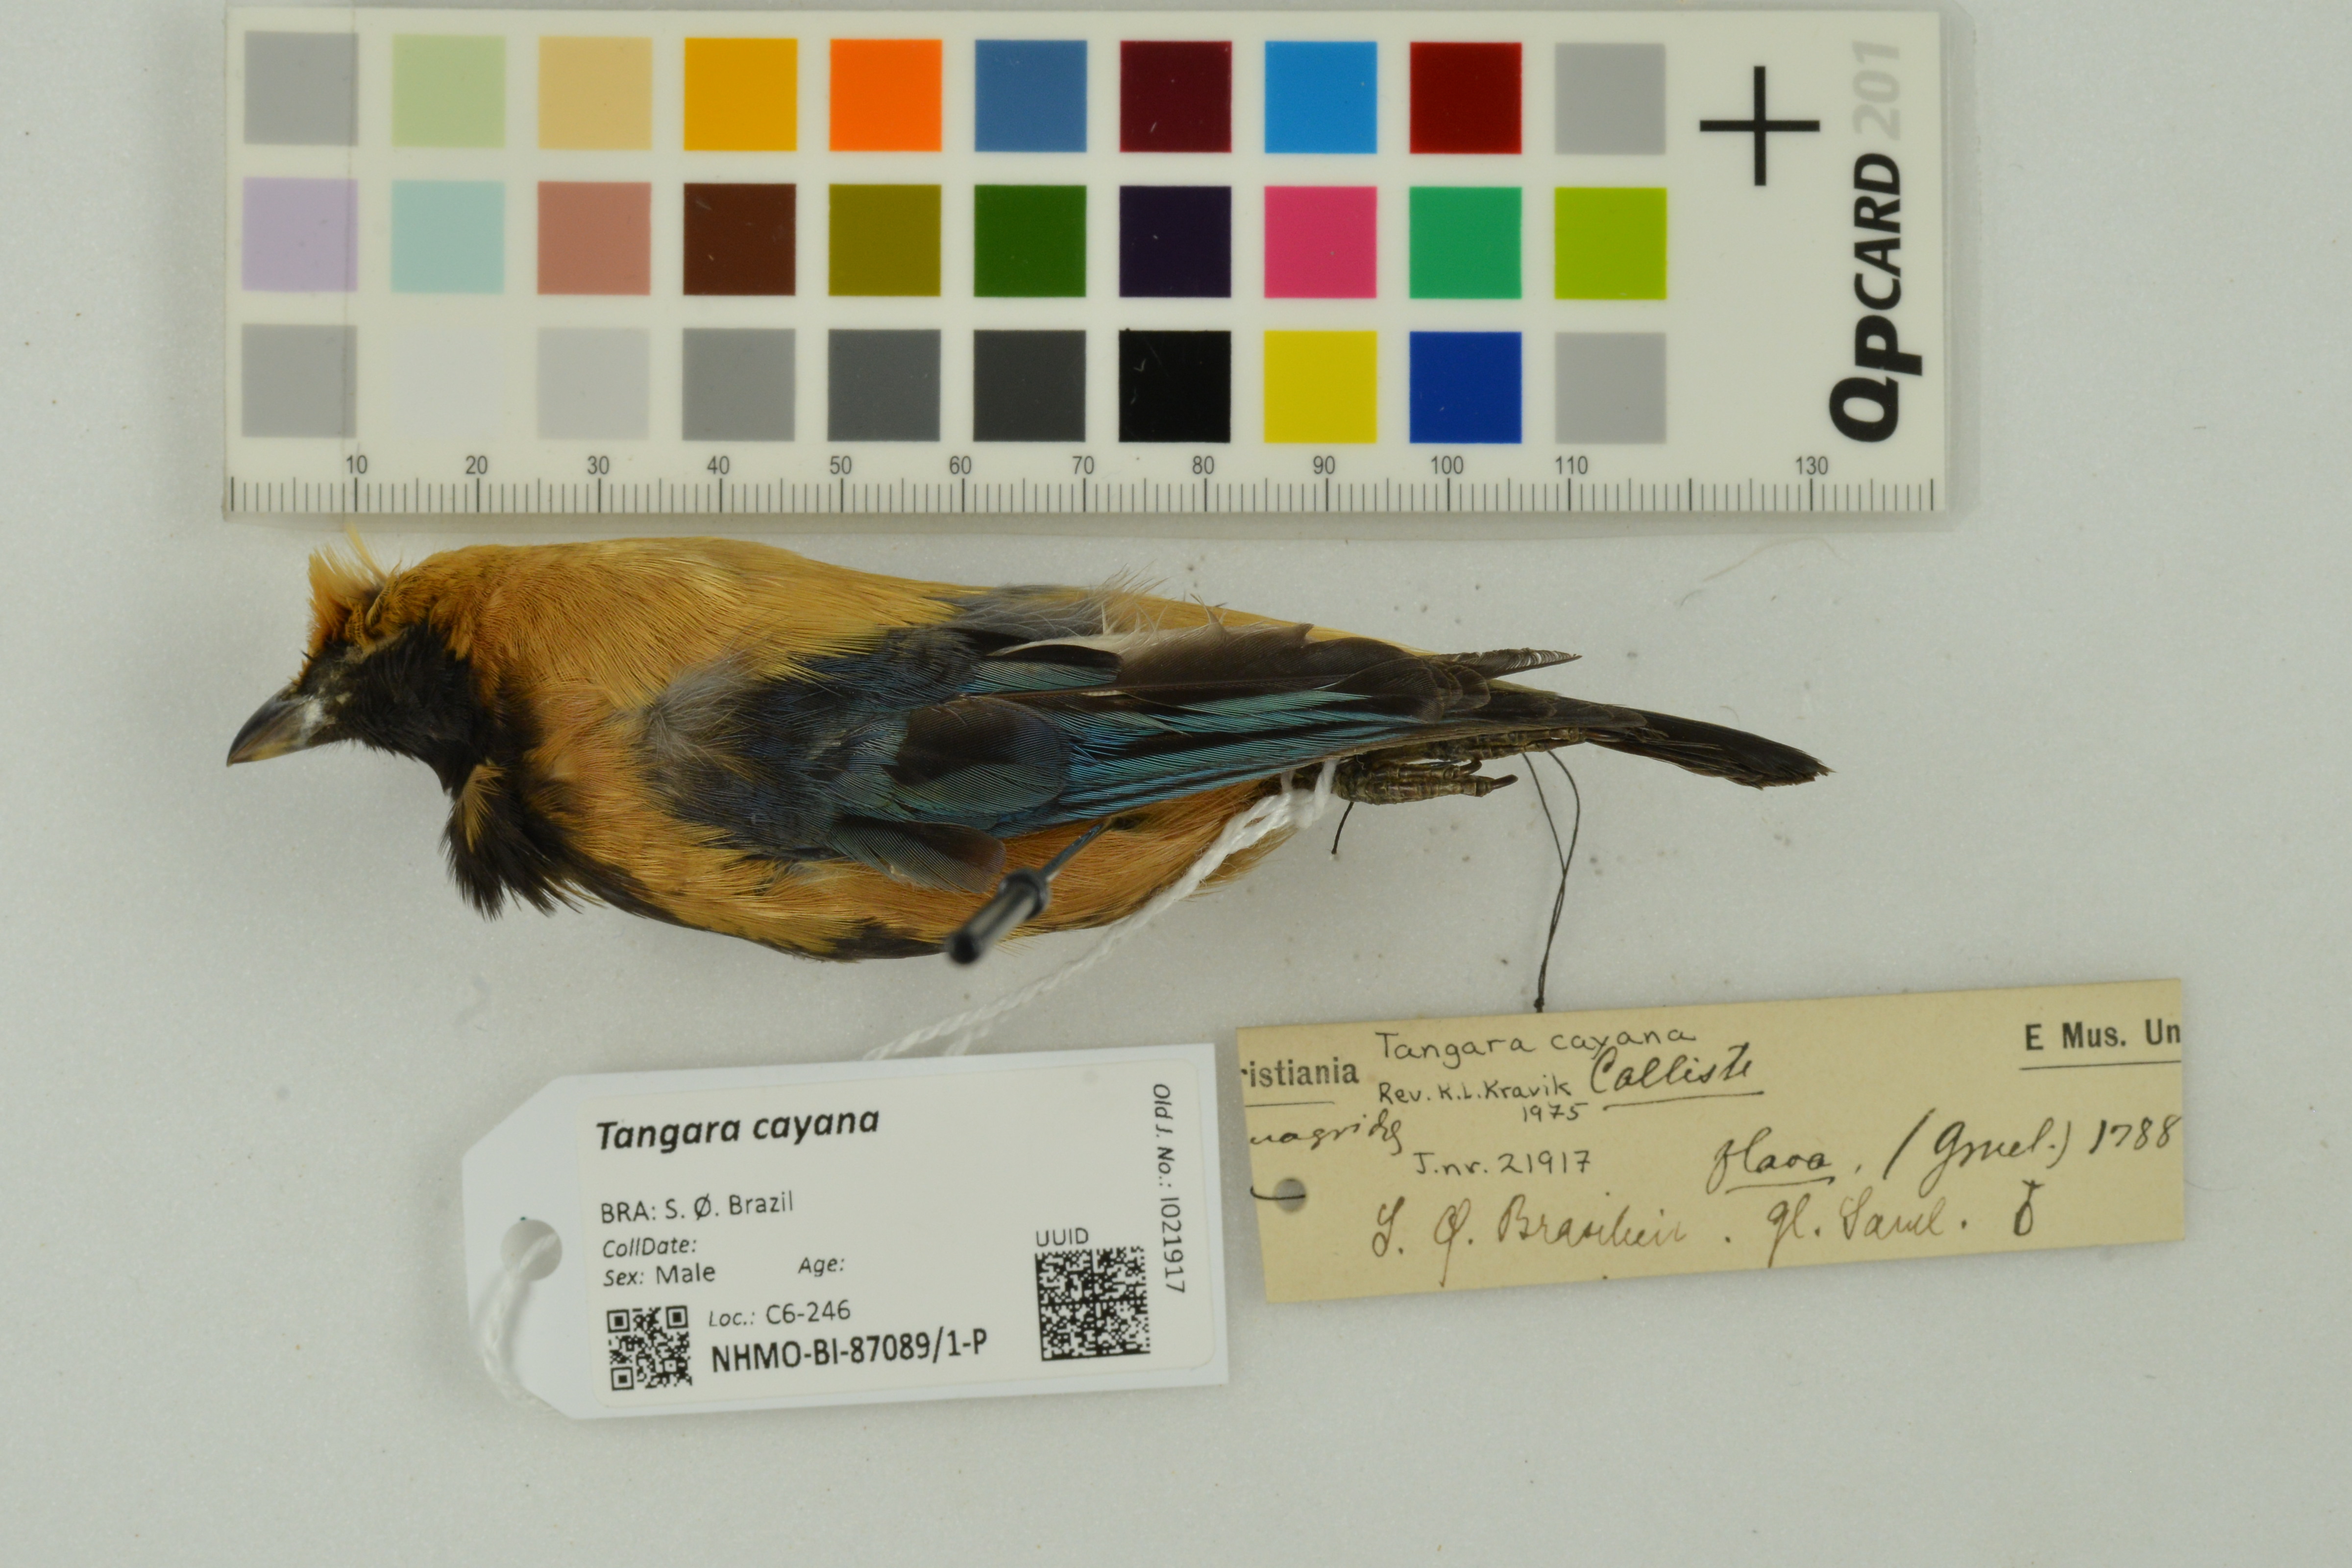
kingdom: Animalia
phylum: Chordata
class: Aves
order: Passeriformes
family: Thraupidae
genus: Stilpnia
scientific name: Stilpnia cayana
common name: Burnished-buff tanager
